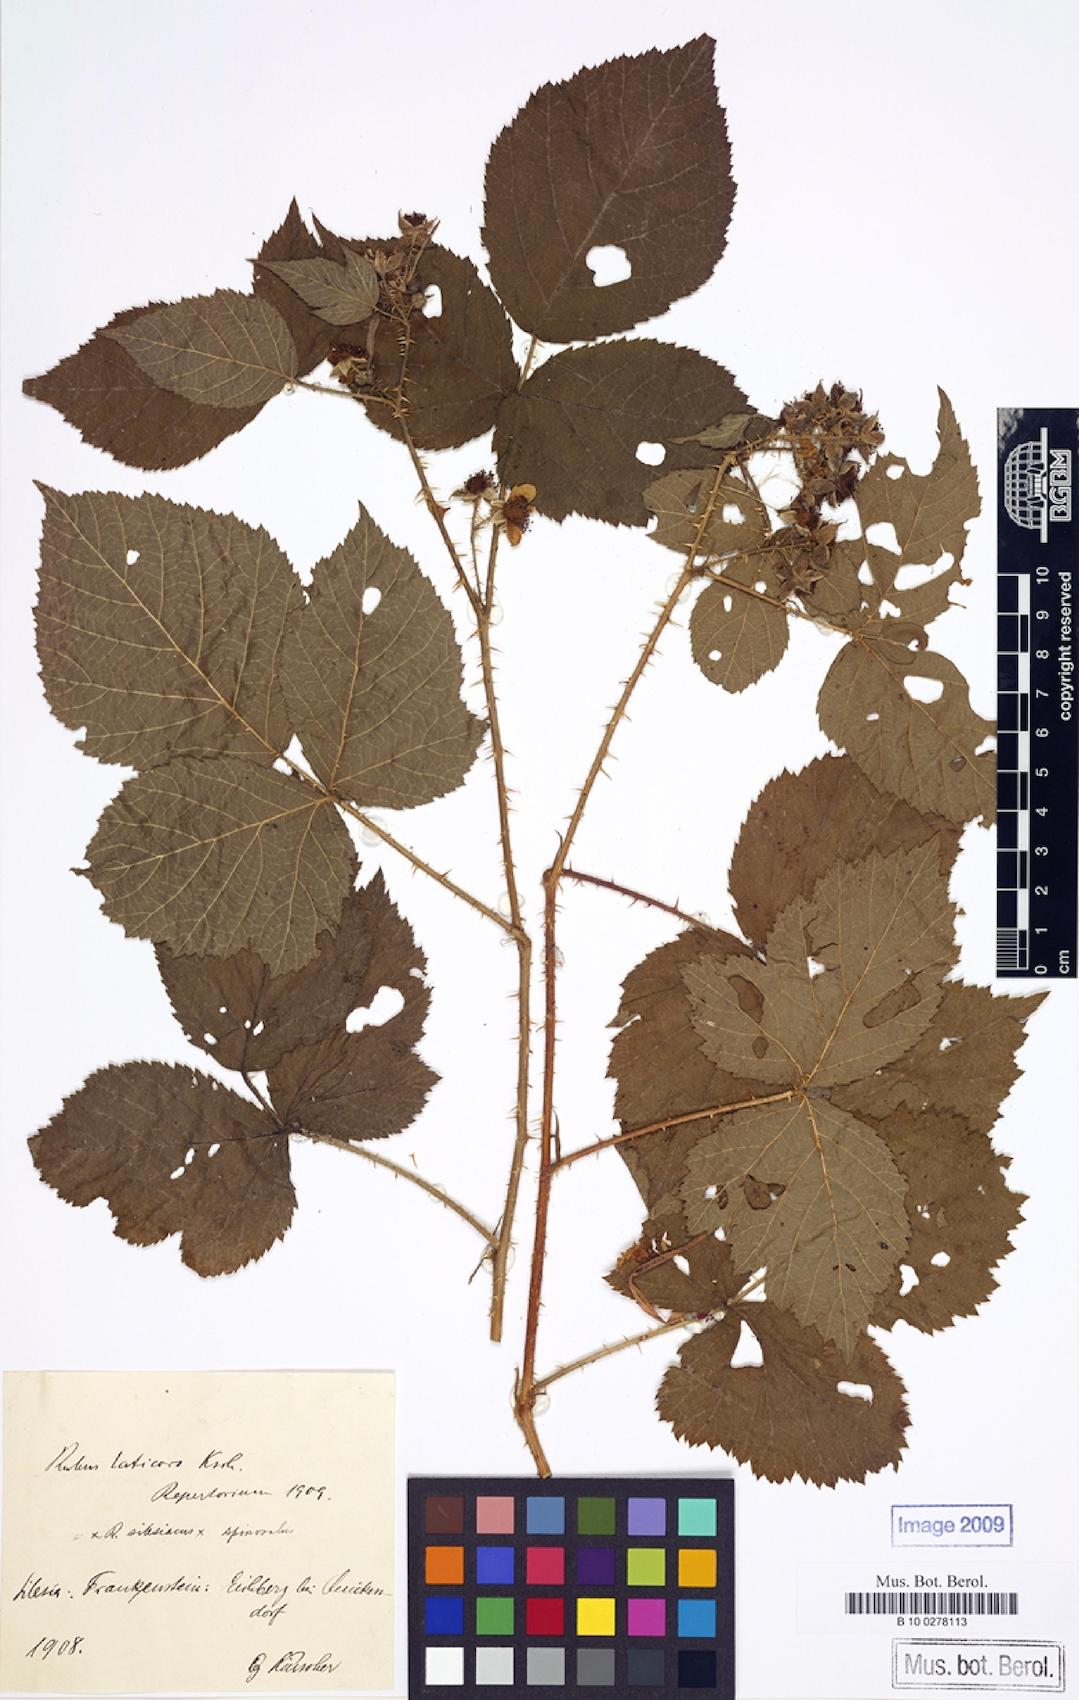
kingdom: Plantae
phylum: Tracheophyta
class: Magnoliopsida
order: Rosales
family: Rosaceae
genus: Rubus
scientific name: Rubus laticors
